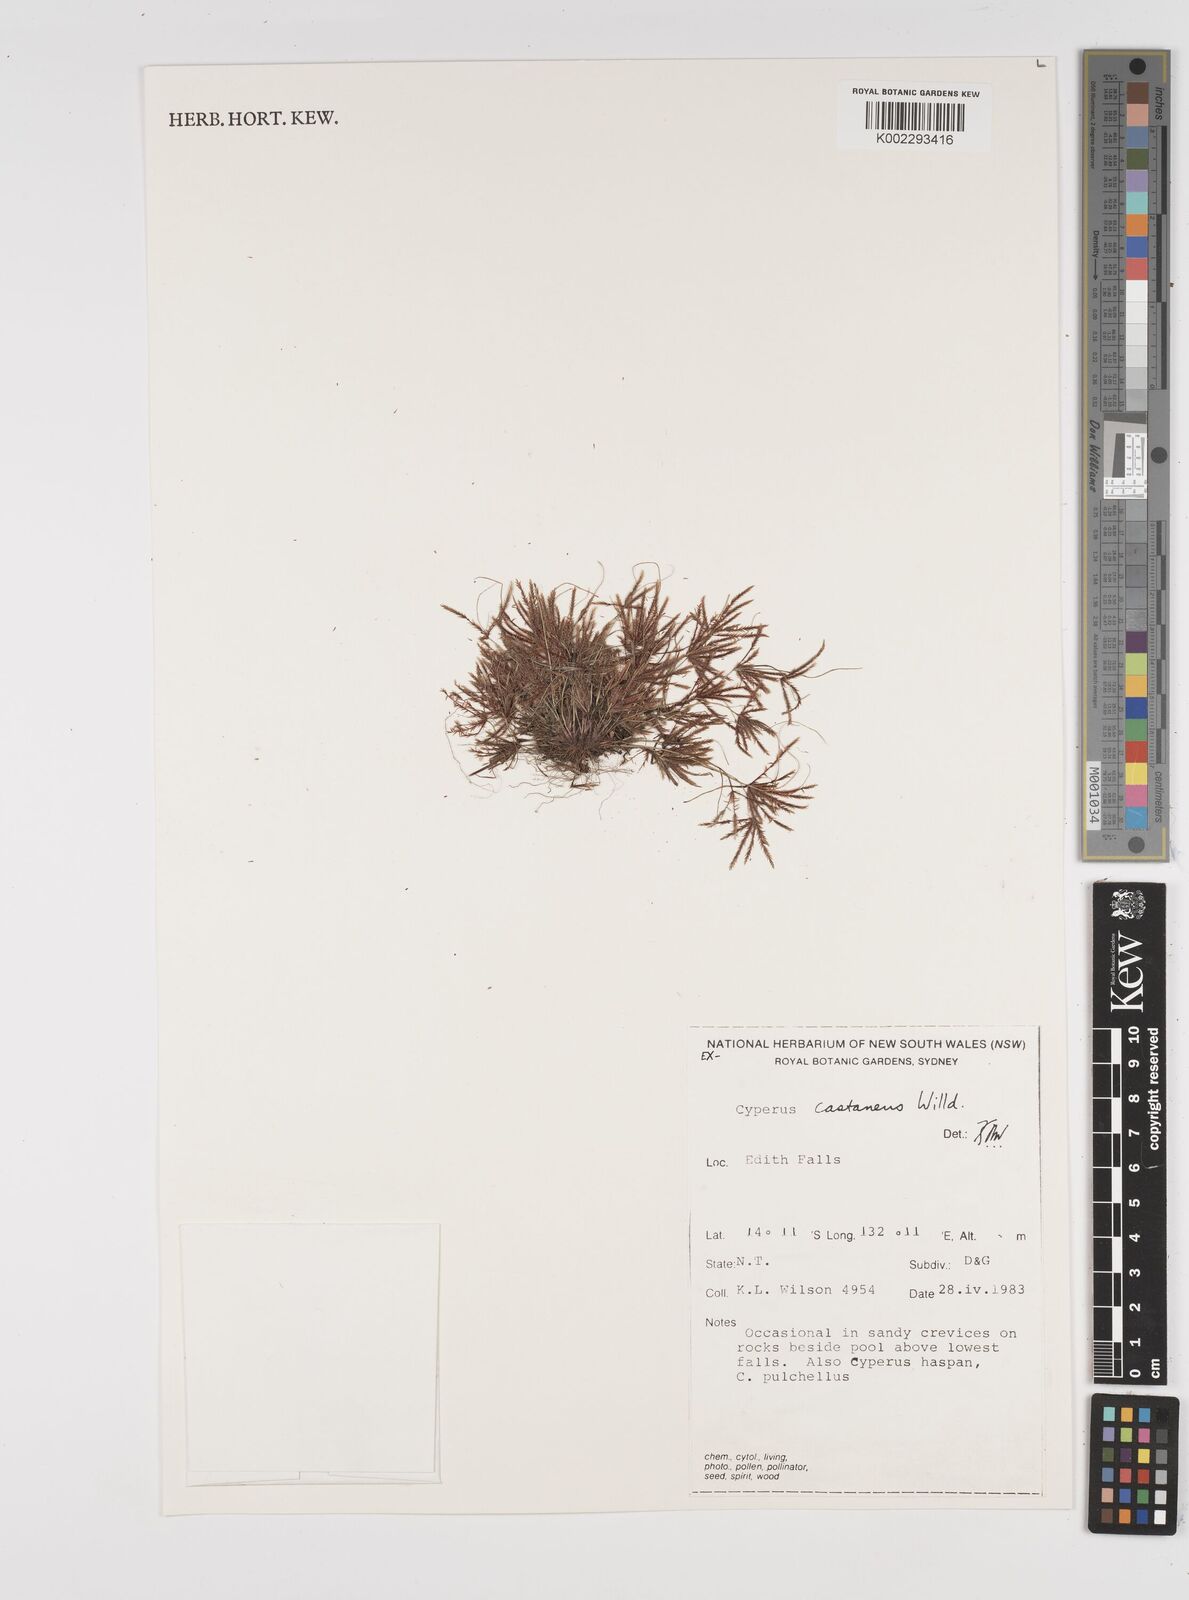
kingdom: Plantae
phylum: Tracheophyta
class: Liliopsida
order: Poales
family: Cyperaceae
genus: Cyperus
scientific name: Cyperus castaneus
